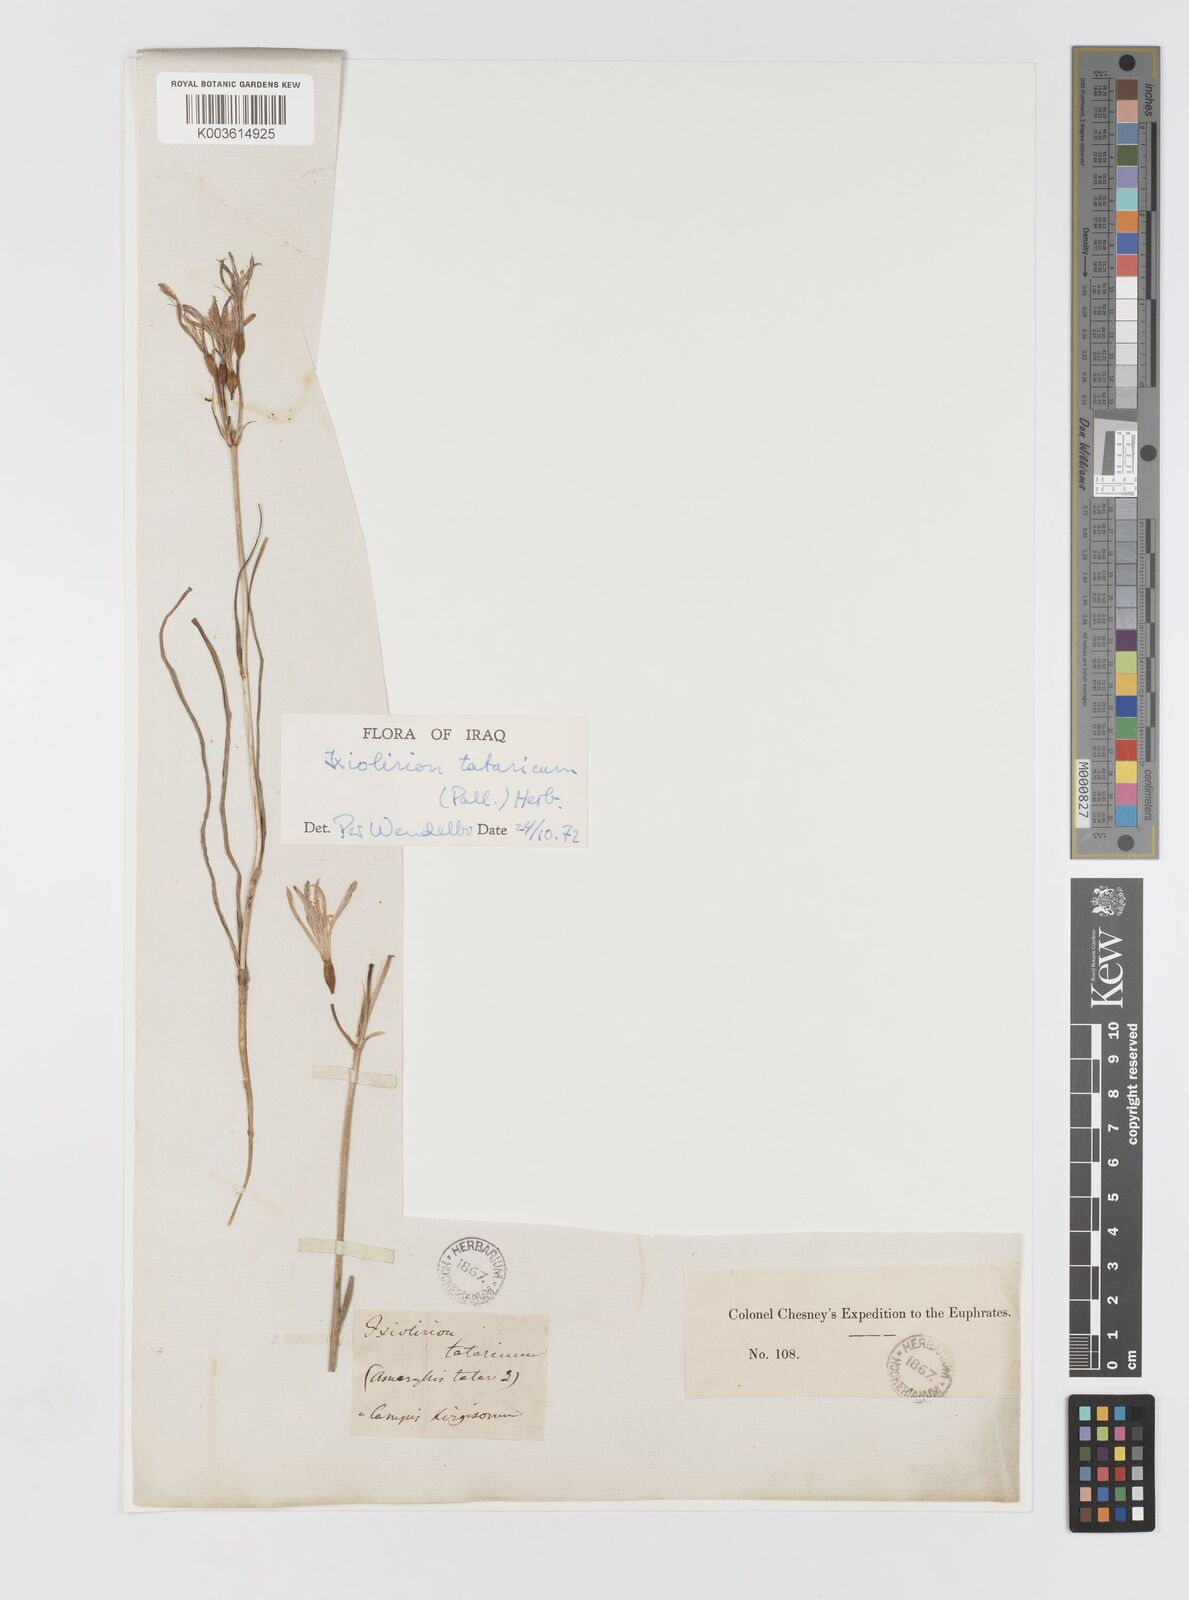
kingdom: Plantae
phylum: Tracheophyta
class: Liliopsida
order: Asparagales
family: Ixioliriaceae
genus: Ixiolirion
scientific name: Ixiolirion tataricum
